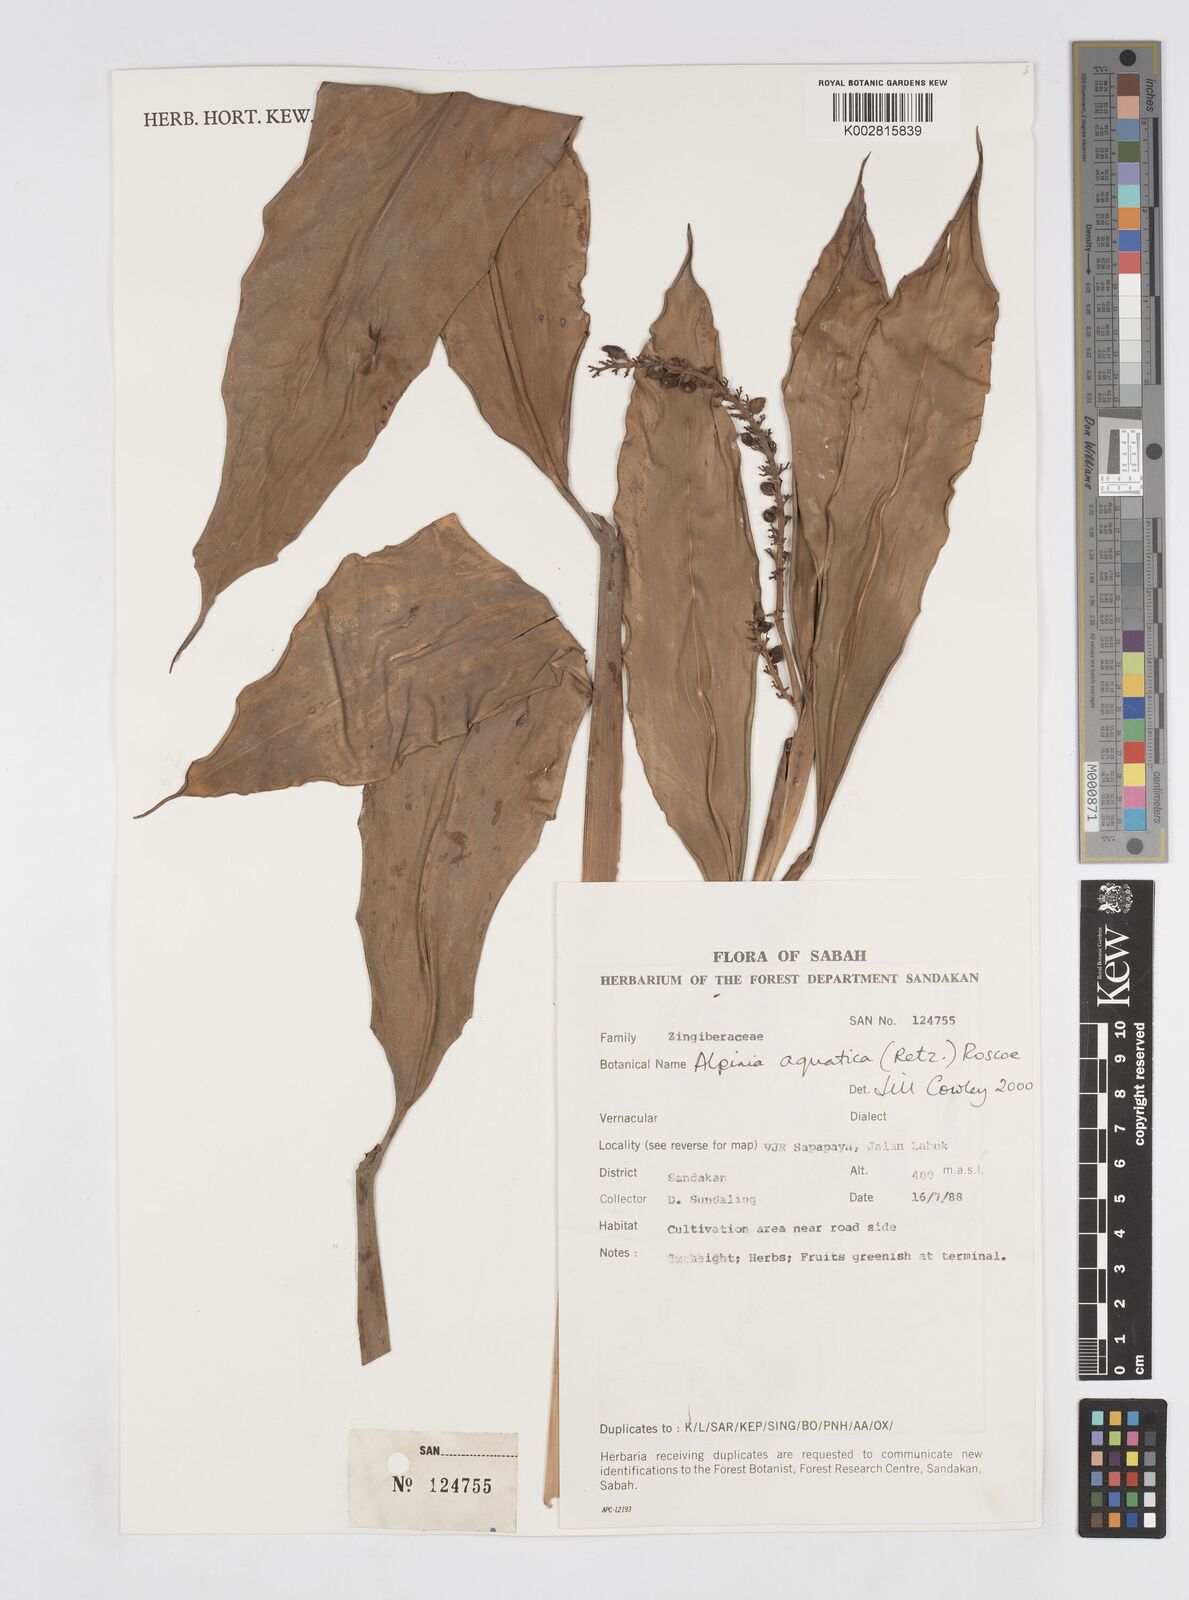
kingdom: Plantae
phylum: Tracheophyta
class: Liliopsida
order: Zingiberales
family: Zingiberaceae
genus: Alpinia
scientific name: Alpinia aquatica
